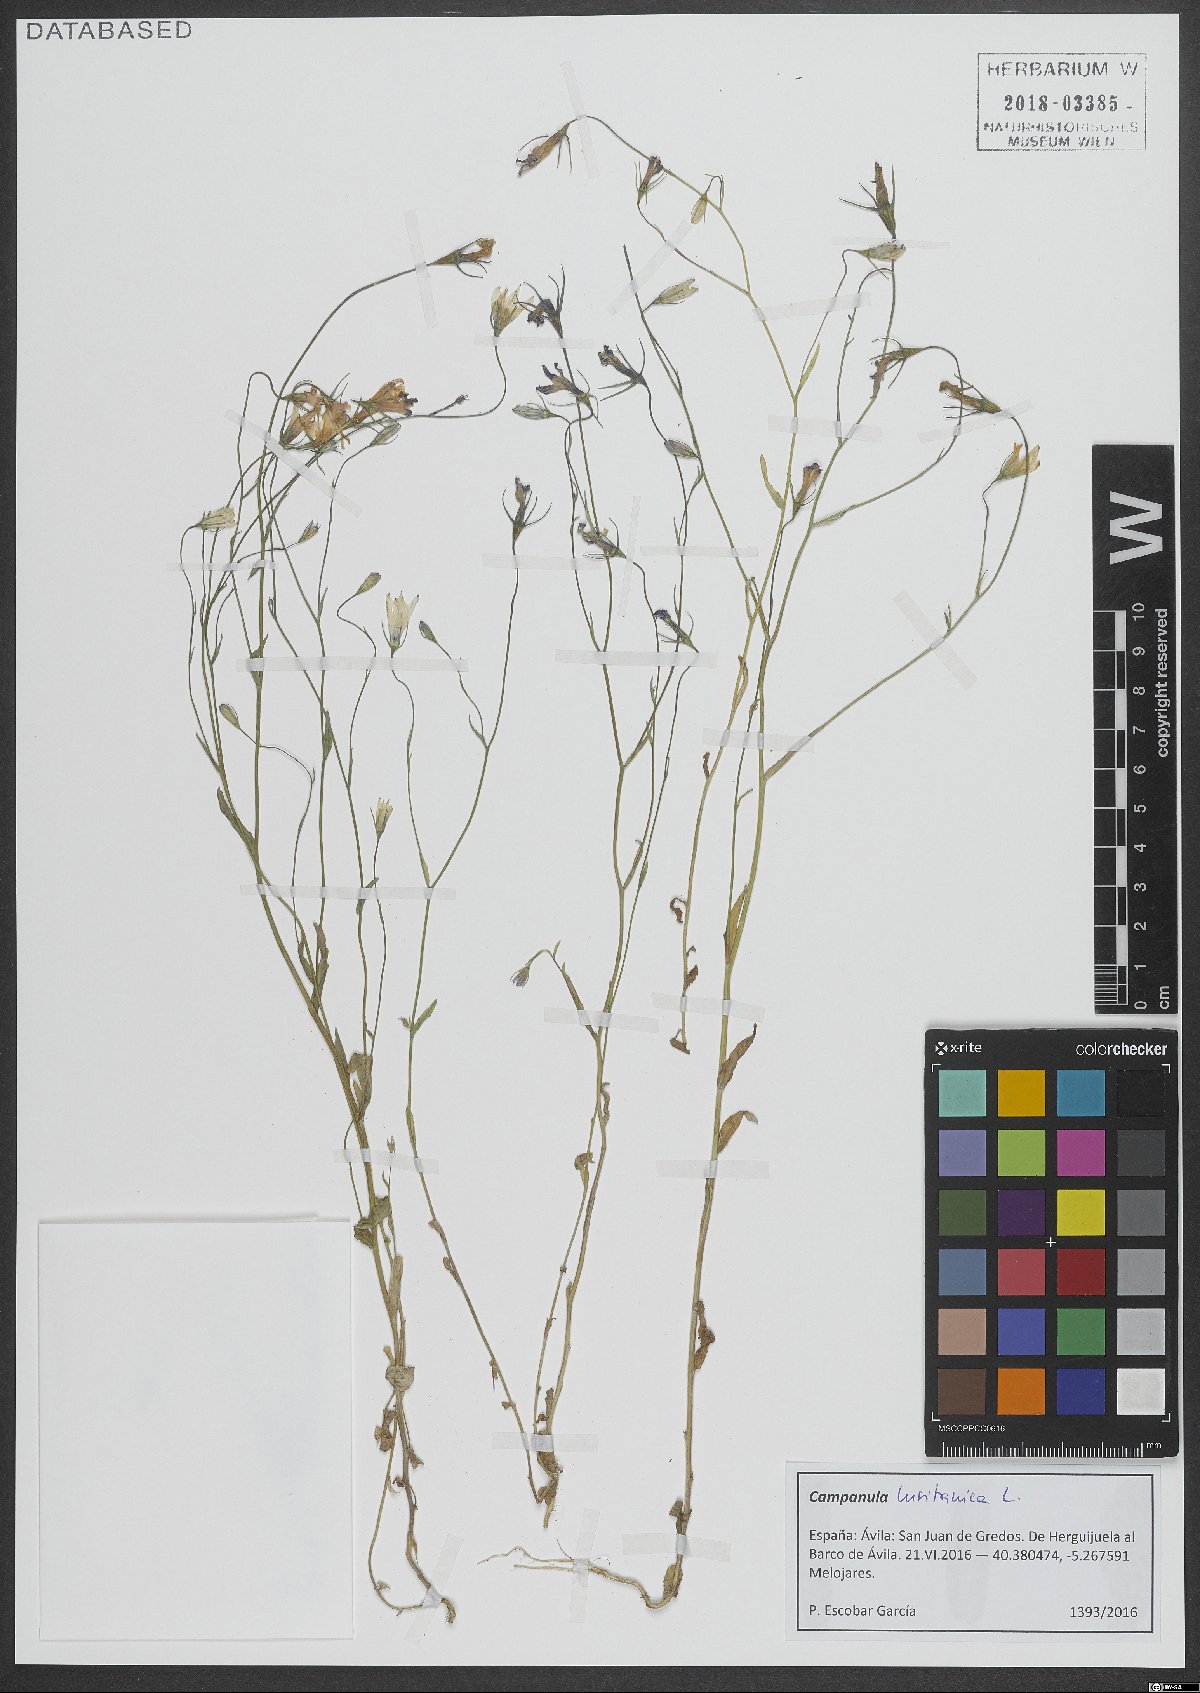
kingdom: Plantae
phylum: Tracheophyta
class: Magnoliopsida
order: Asterales
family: Campanulaceae
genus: Campanula
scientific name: Campanula lusitanica
